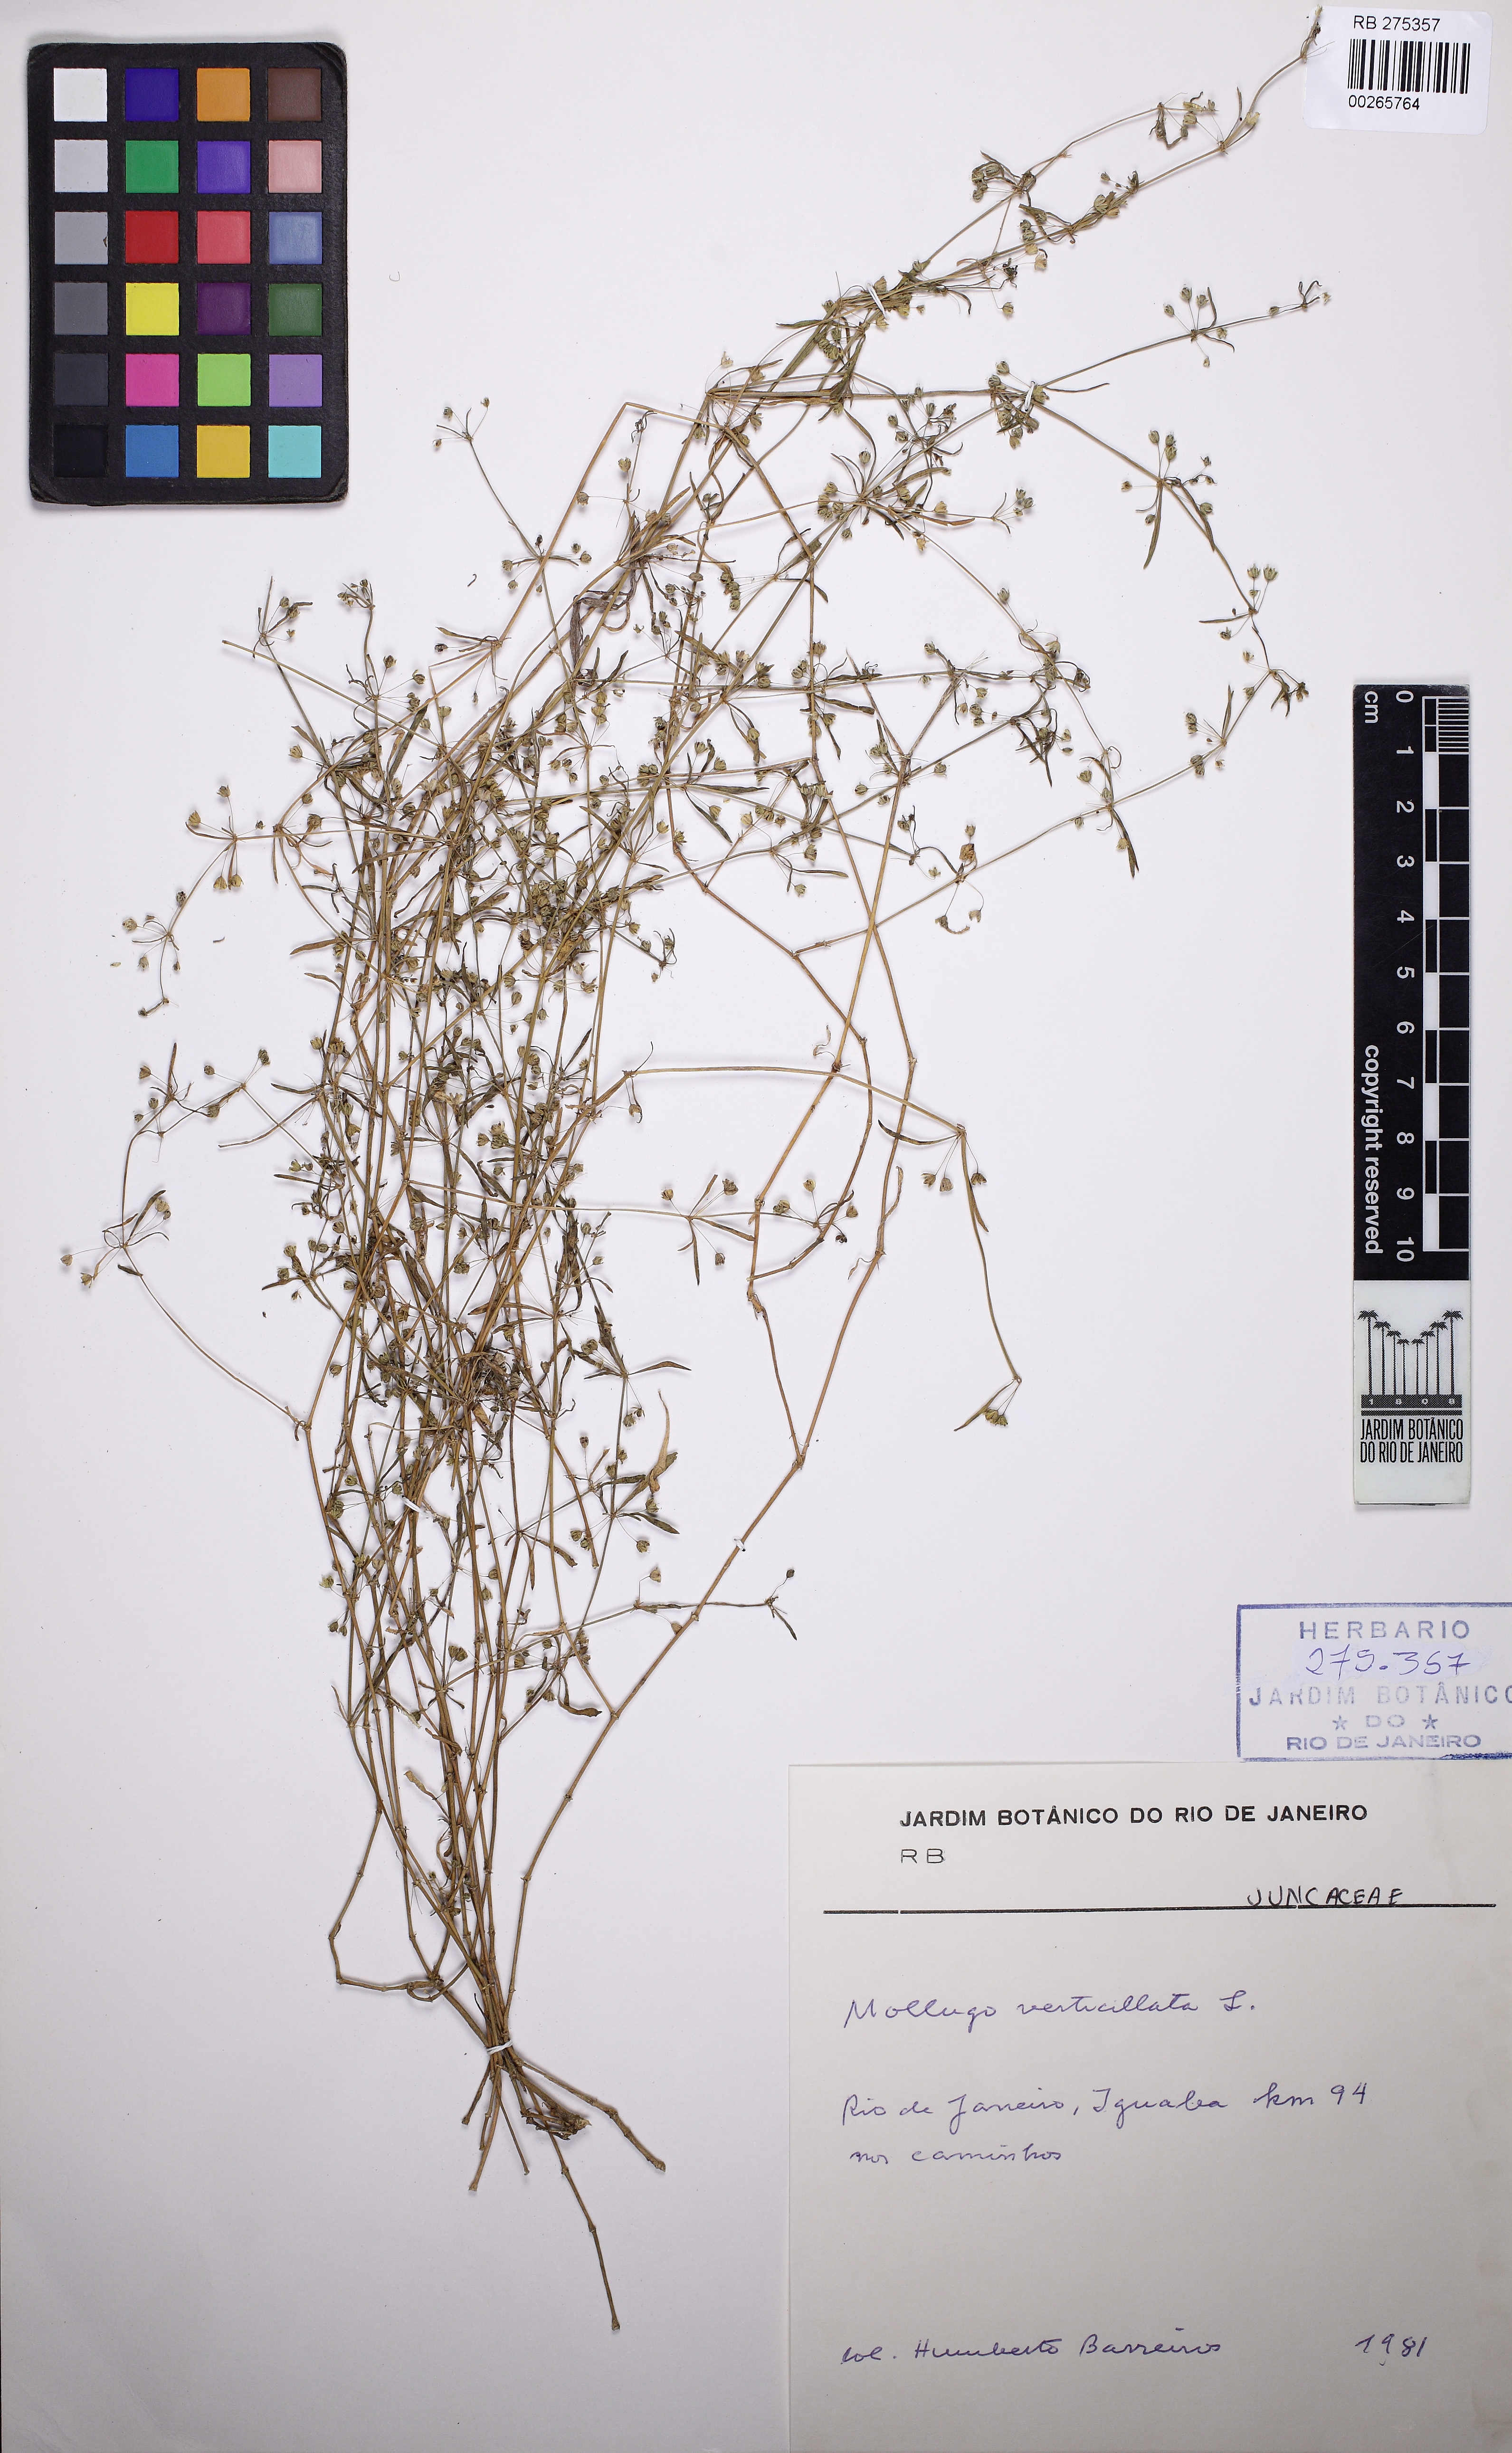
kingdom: Plantae
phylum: Tracheophyta
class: Magnoliopsida
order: Caryophyllales
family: Molluginaceae
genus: Mollugo
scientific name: Mollugo verticillata
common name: Green carpetweed
